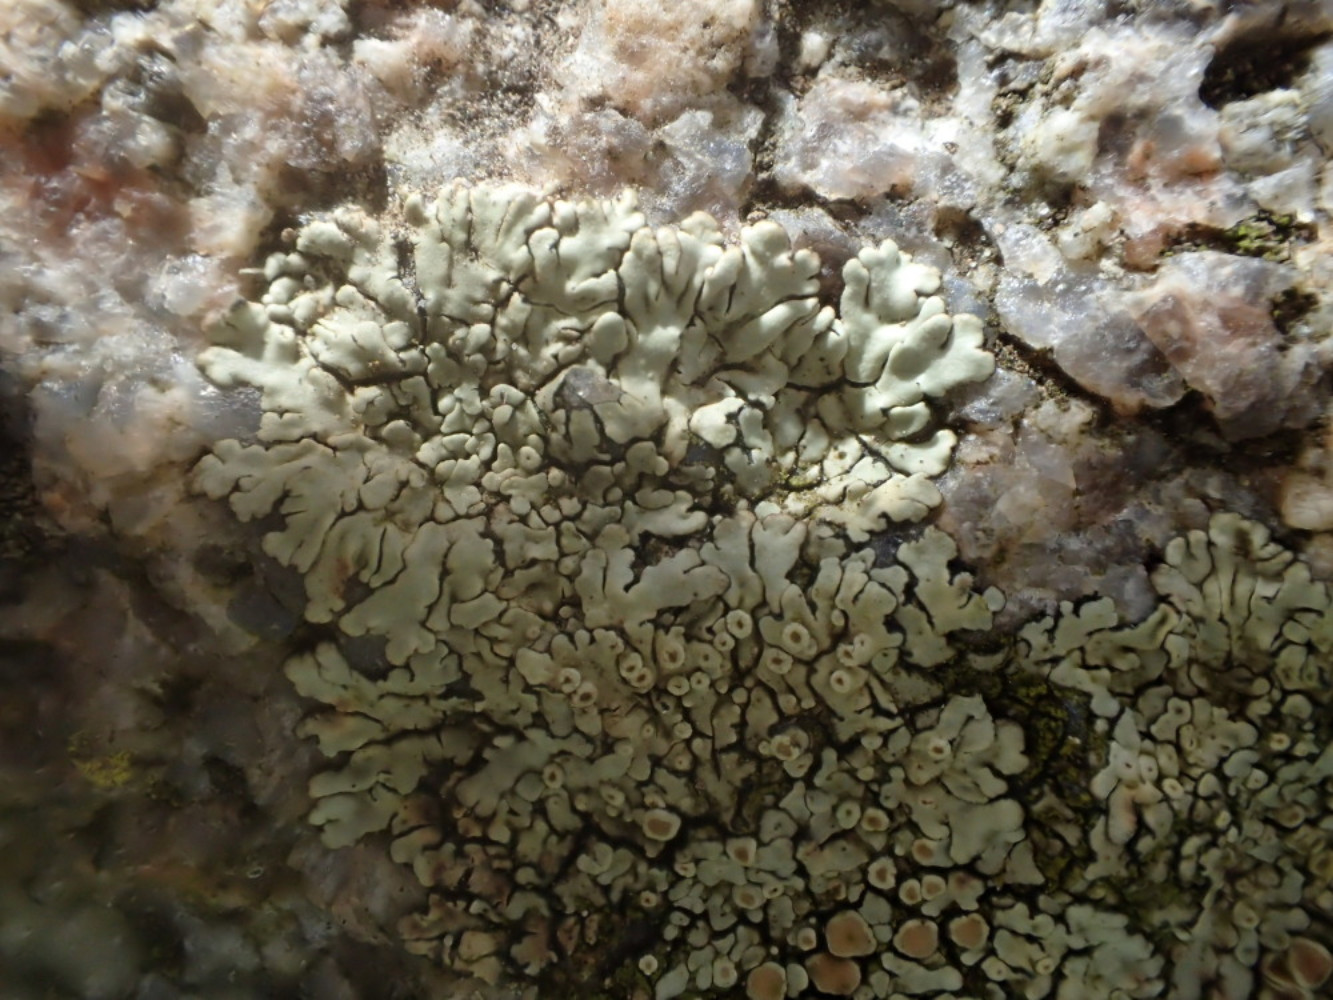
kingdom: Fungi
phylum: Ascomycota
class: Lecanoromycetes
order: Lecanorales
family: Lecanoraceae
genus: Protoparmeliopsis
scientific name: Protoparmeliopsis muralis
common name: randfliget kantskivelav
